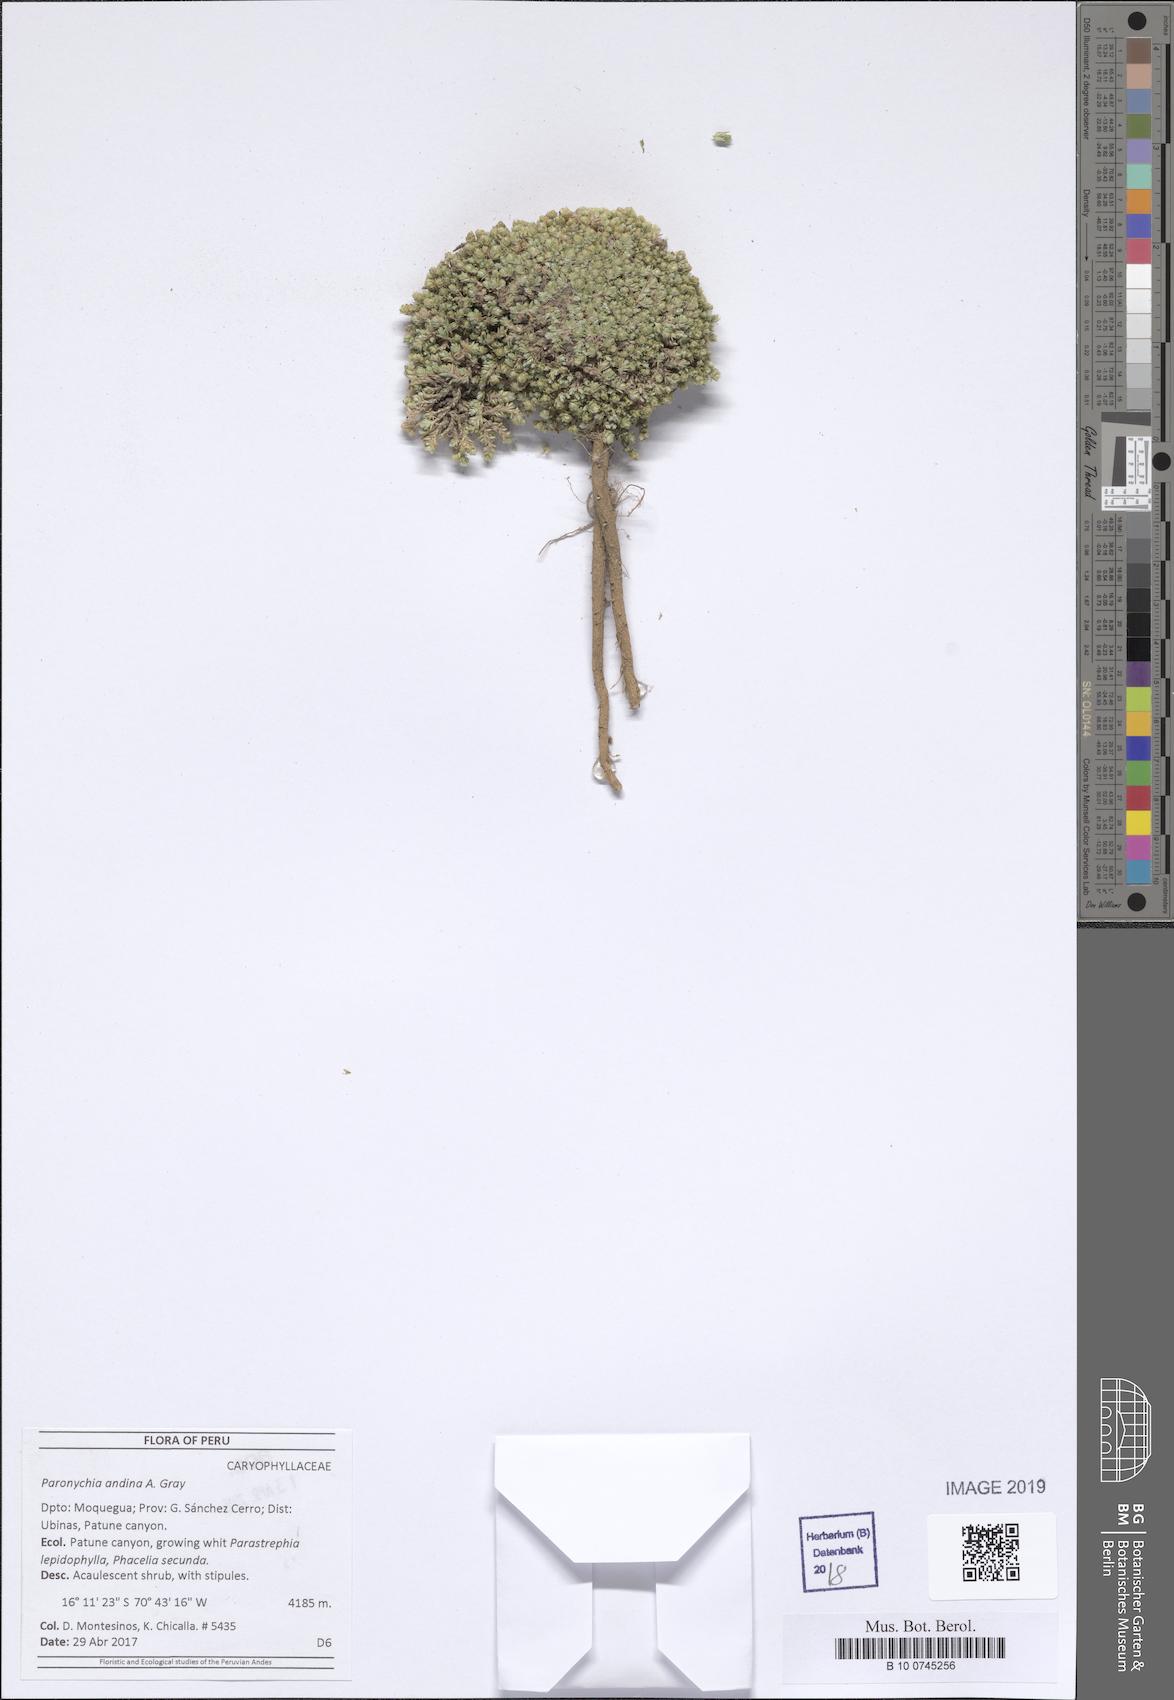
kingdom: Plantae
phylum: Tracheophyta
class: Magnoliopsida
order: Caryophyllales
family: Caryophyllaceae
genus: Paronychia
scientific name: Paronychia
